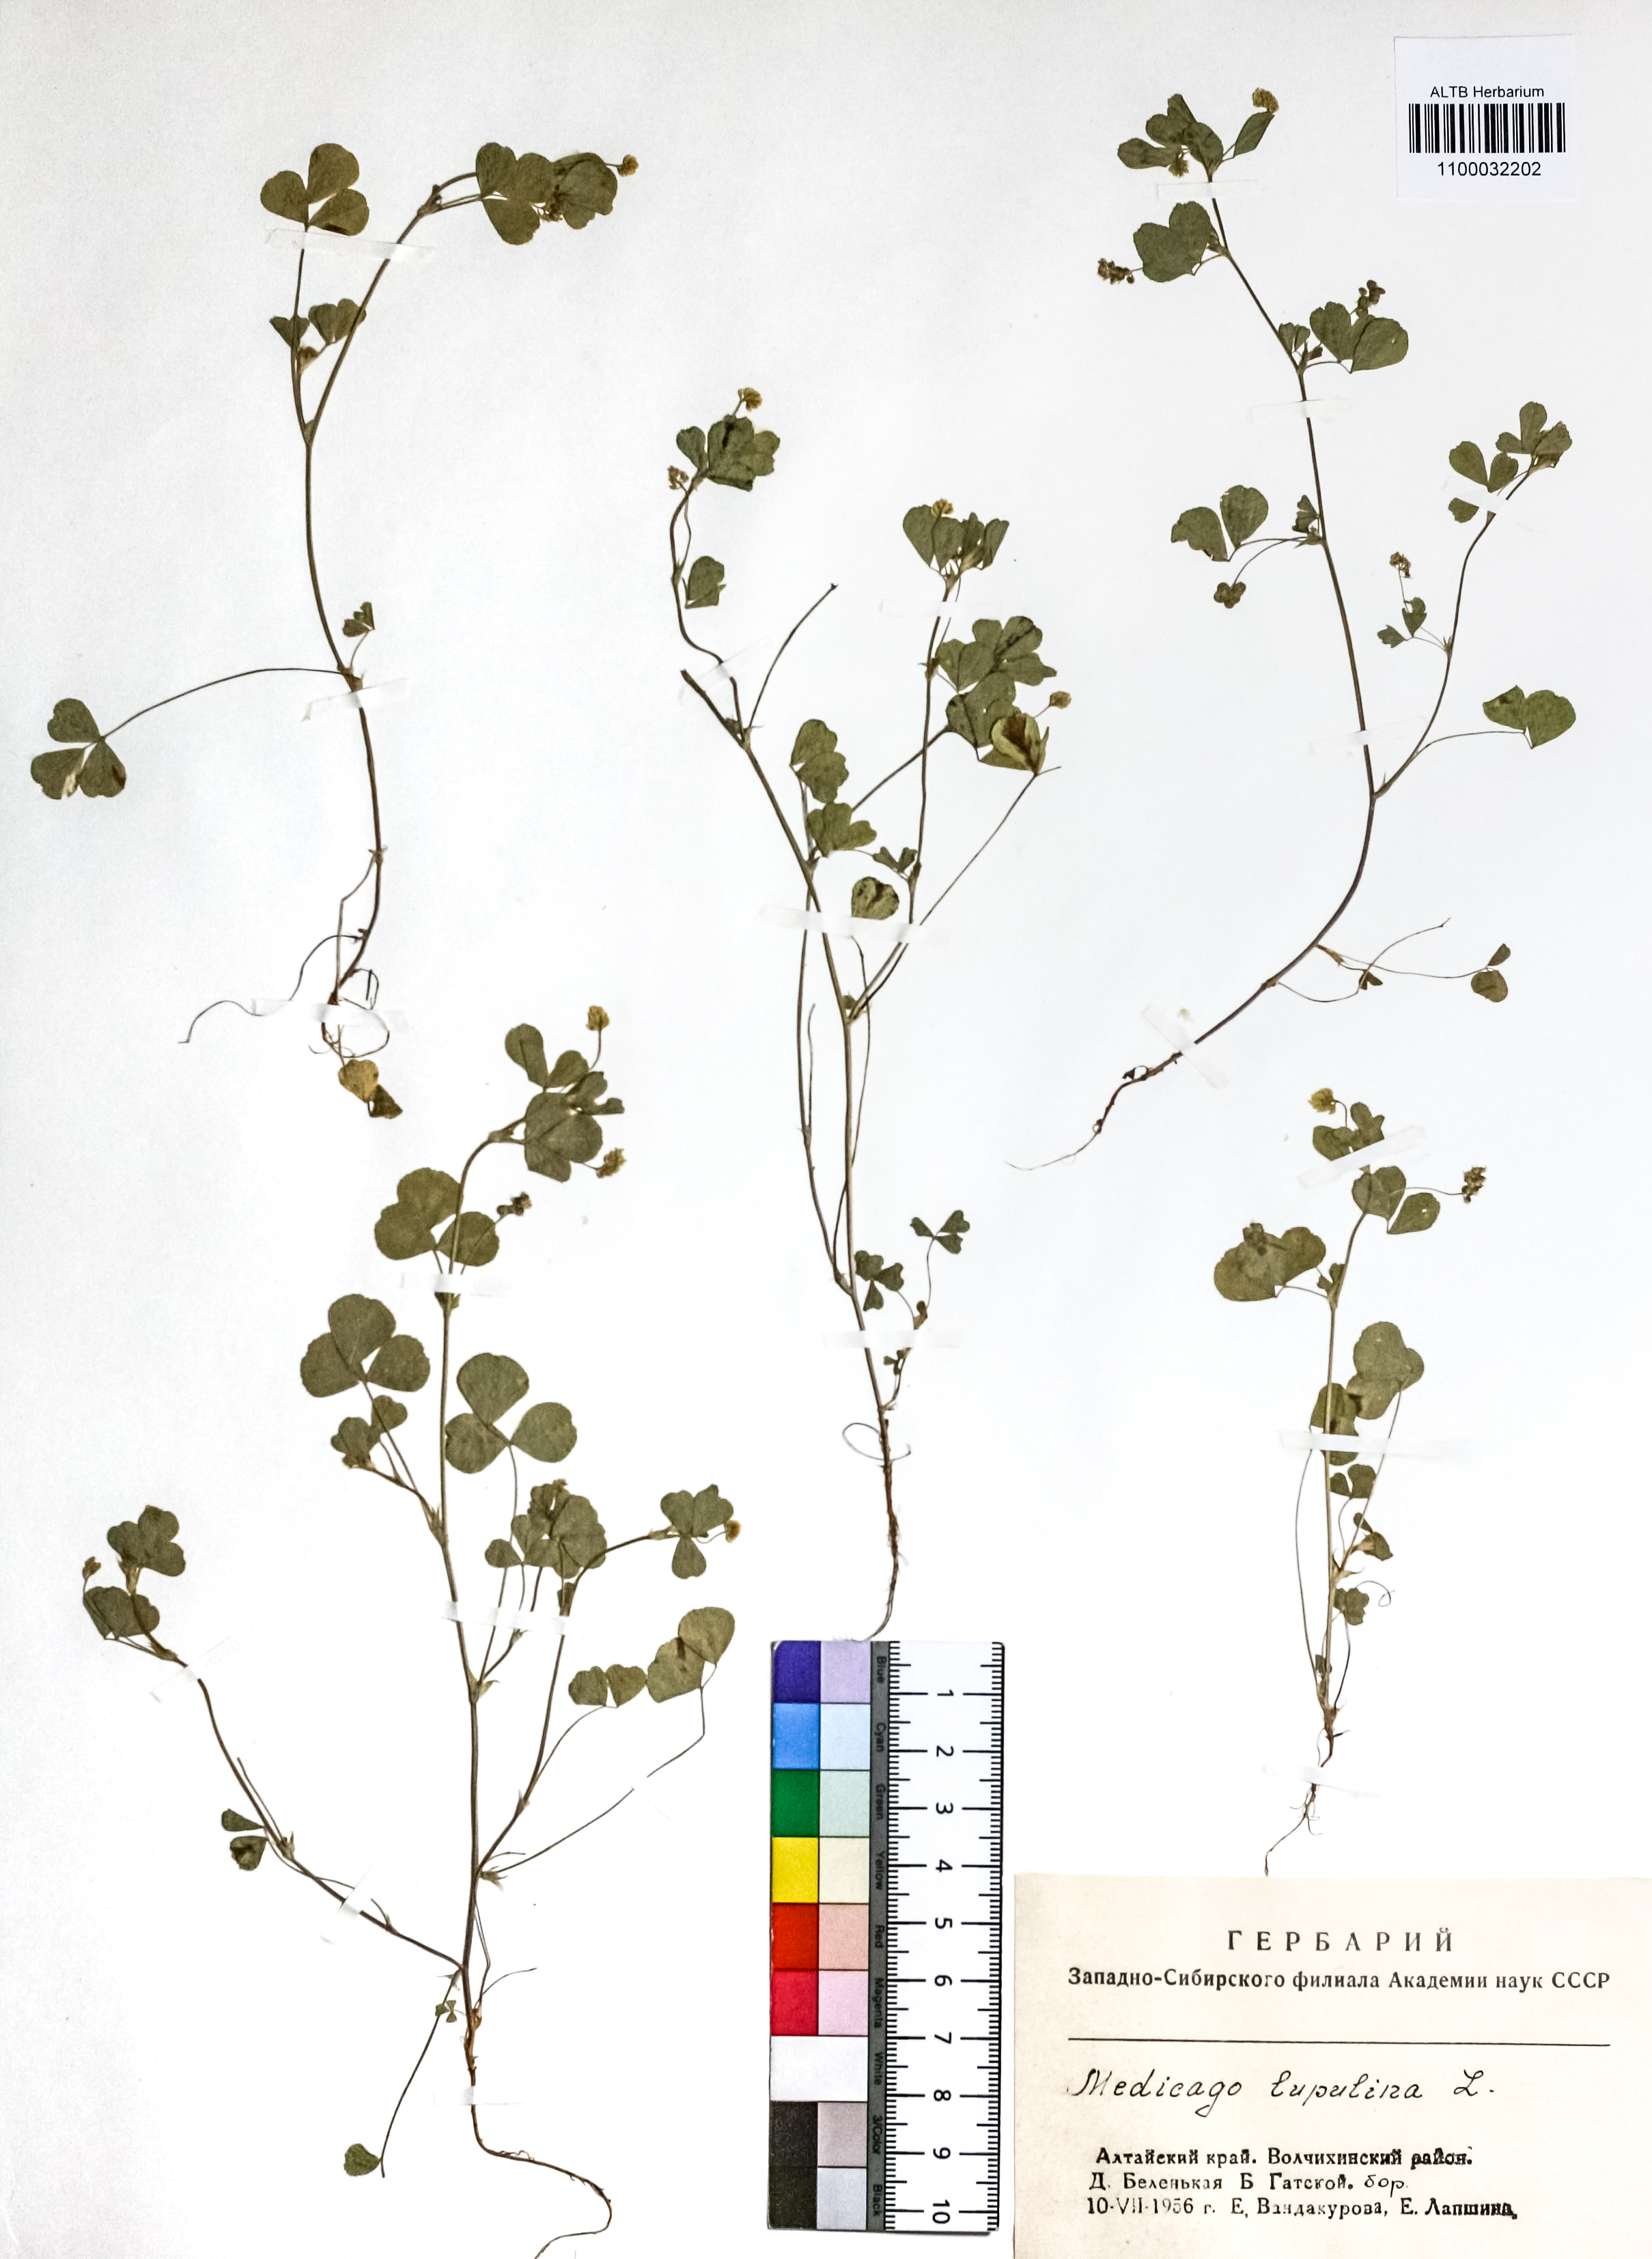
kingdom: Plantae
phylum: Tracheophyta
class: Magnoliopsida
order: Fabales
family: Fabaceae
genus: Medicago
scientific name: Medicago lupulina
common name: Black medick
